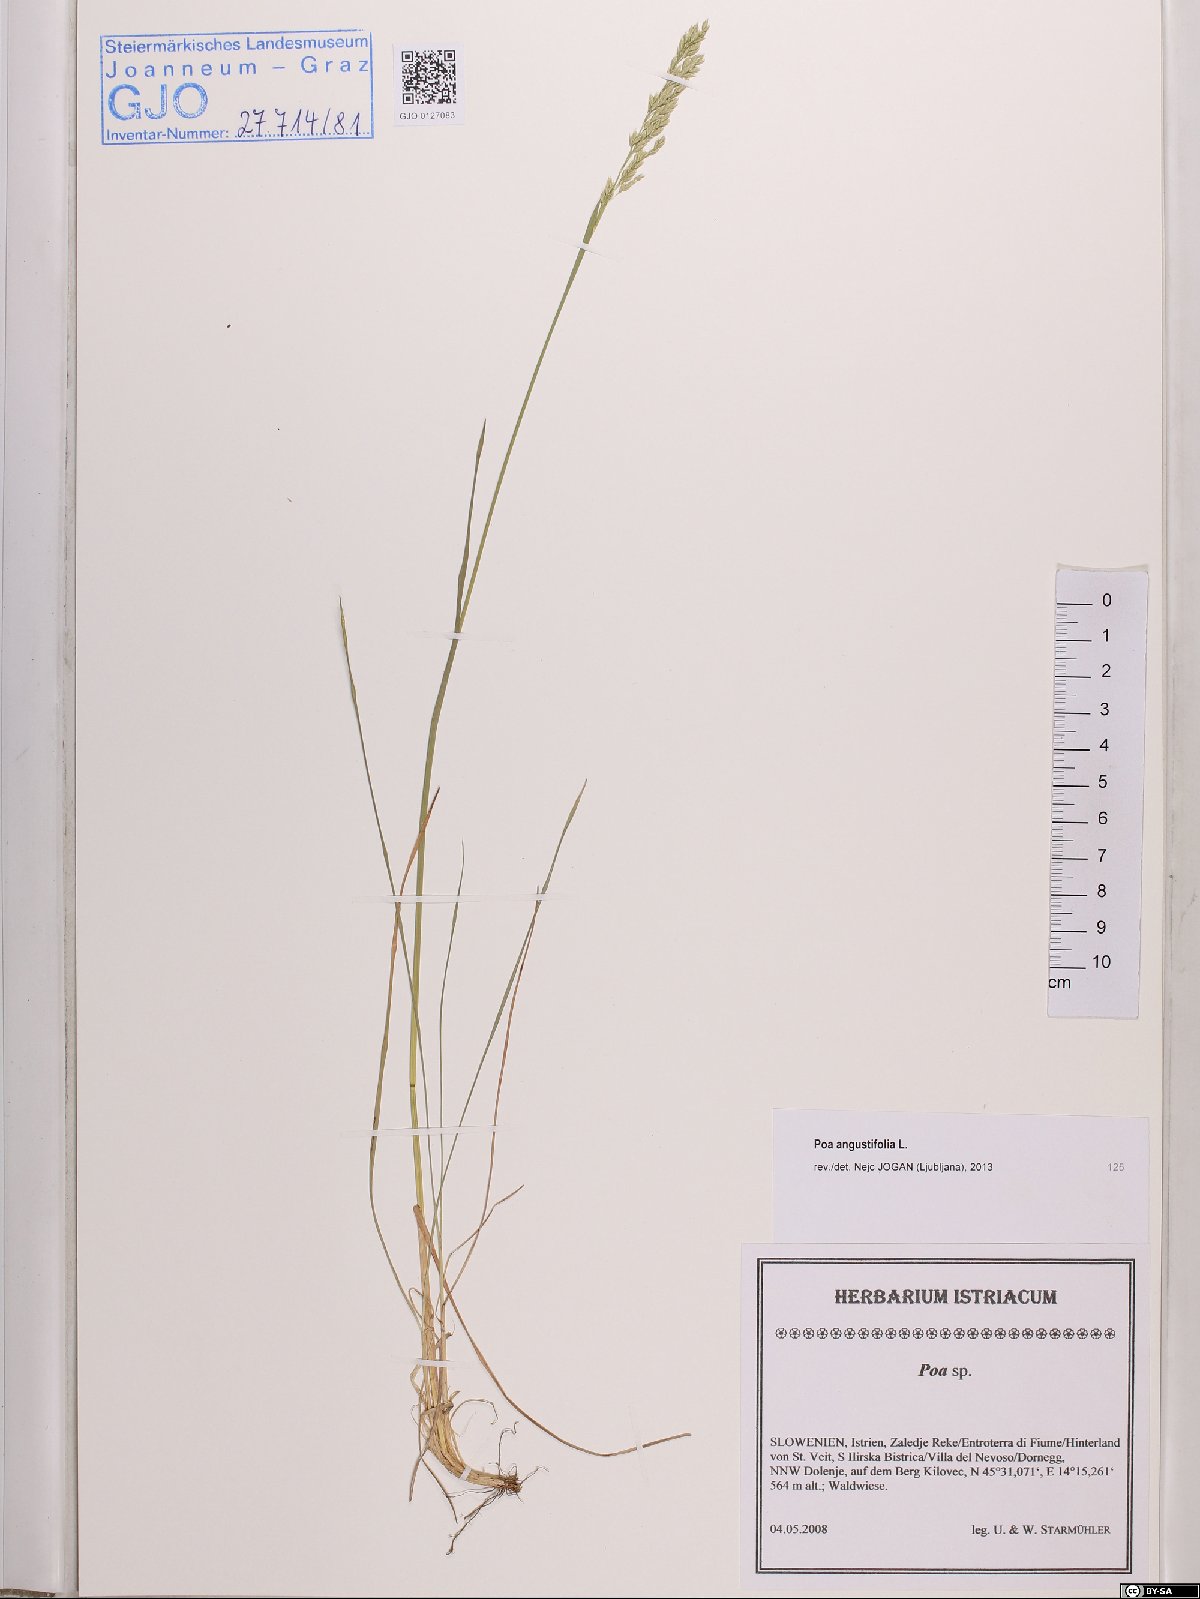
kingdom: Plantae
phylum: Tracheophyta
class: Liliopsida
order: Poales
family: Poaceae
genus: Poa
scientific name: Poa angustifolia
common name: Narrow-leaved meadow-grass
